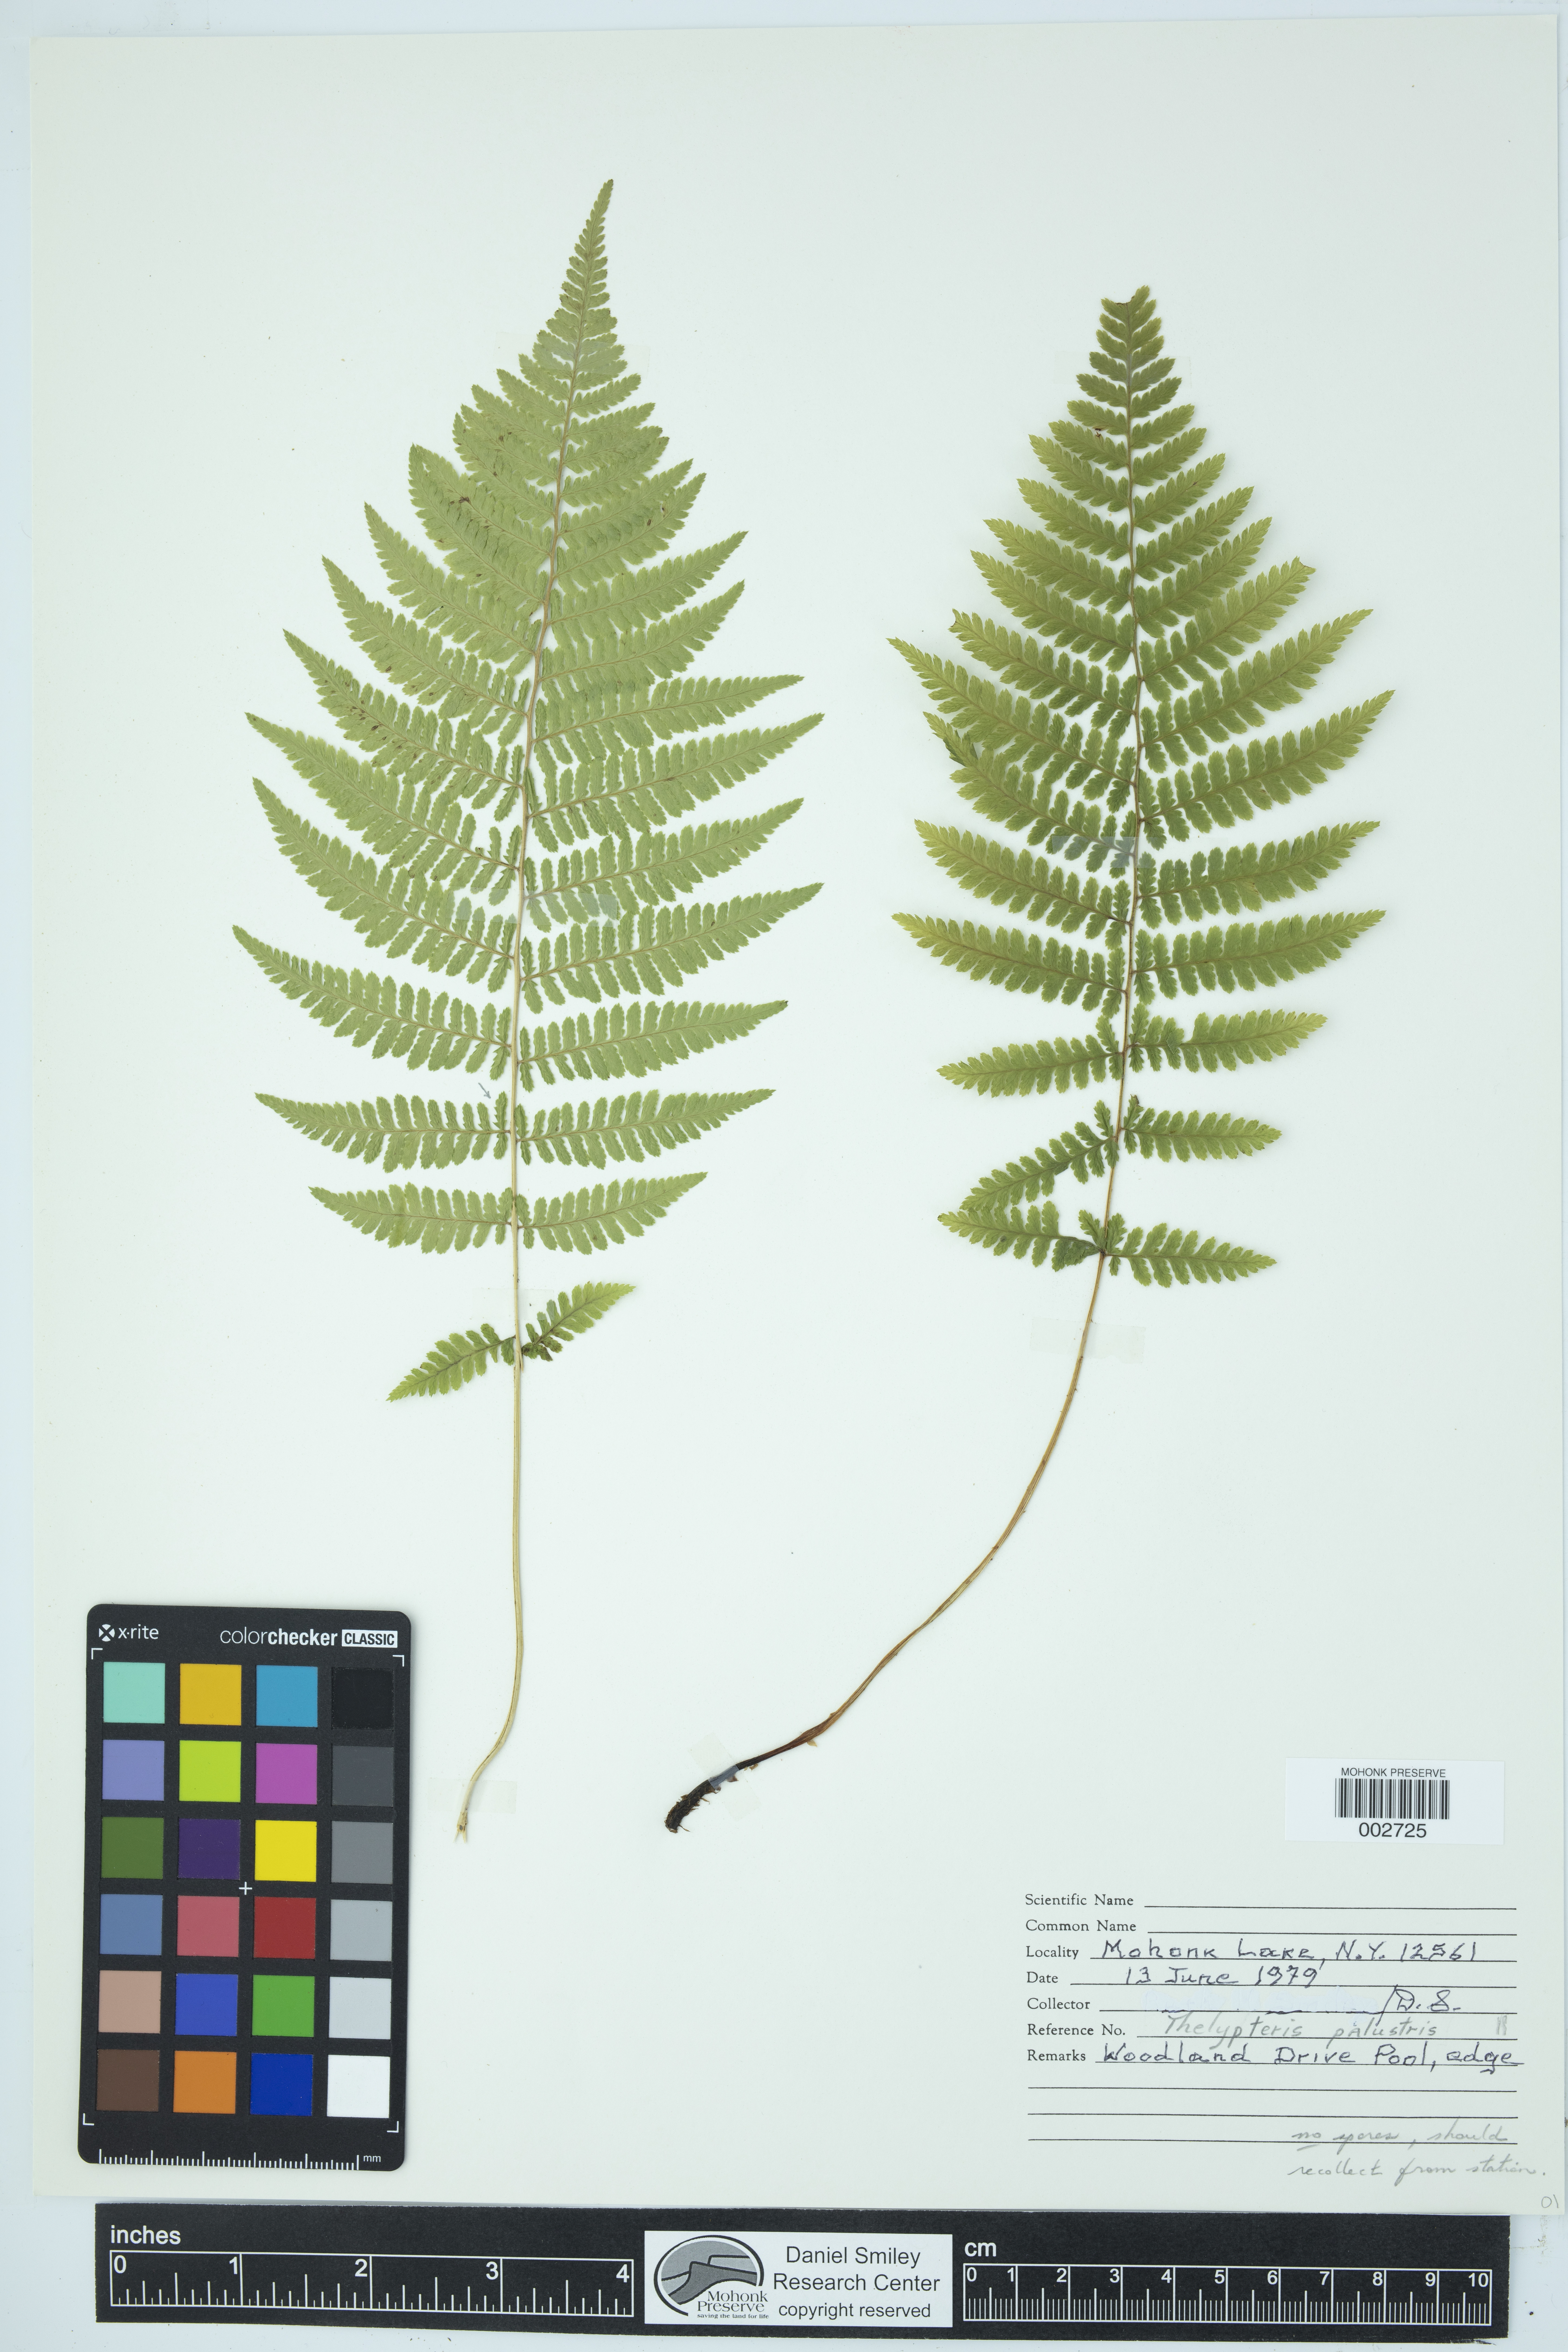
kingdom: Plantae
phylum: Tracheophyta
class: Polypodiopsida
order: Polypodiales
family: Thelypteridaceae
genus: Thelypteris
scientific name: Thelypteris confluens
